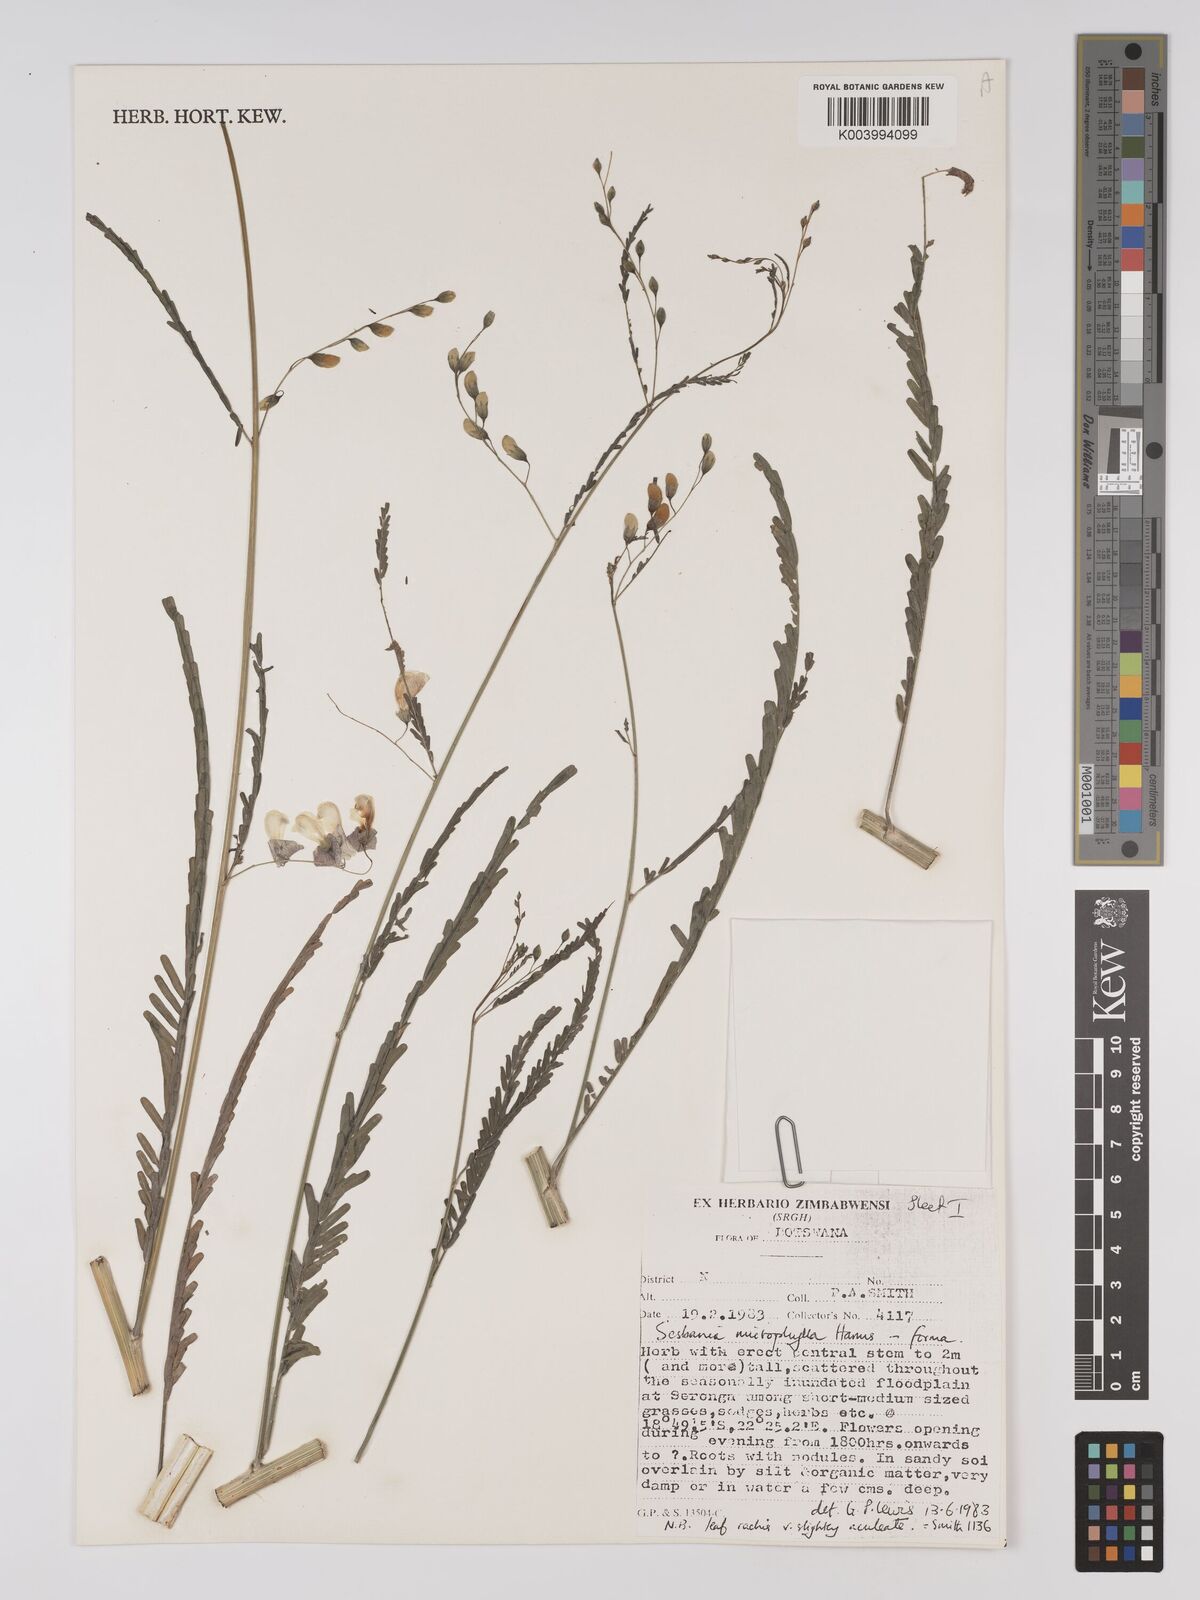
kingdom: Plantae
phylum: Tracheophyta
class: Magnoliopsida
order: Fabales
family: Fabaceae
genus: Sesbania
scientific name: Sesbania microphylla
